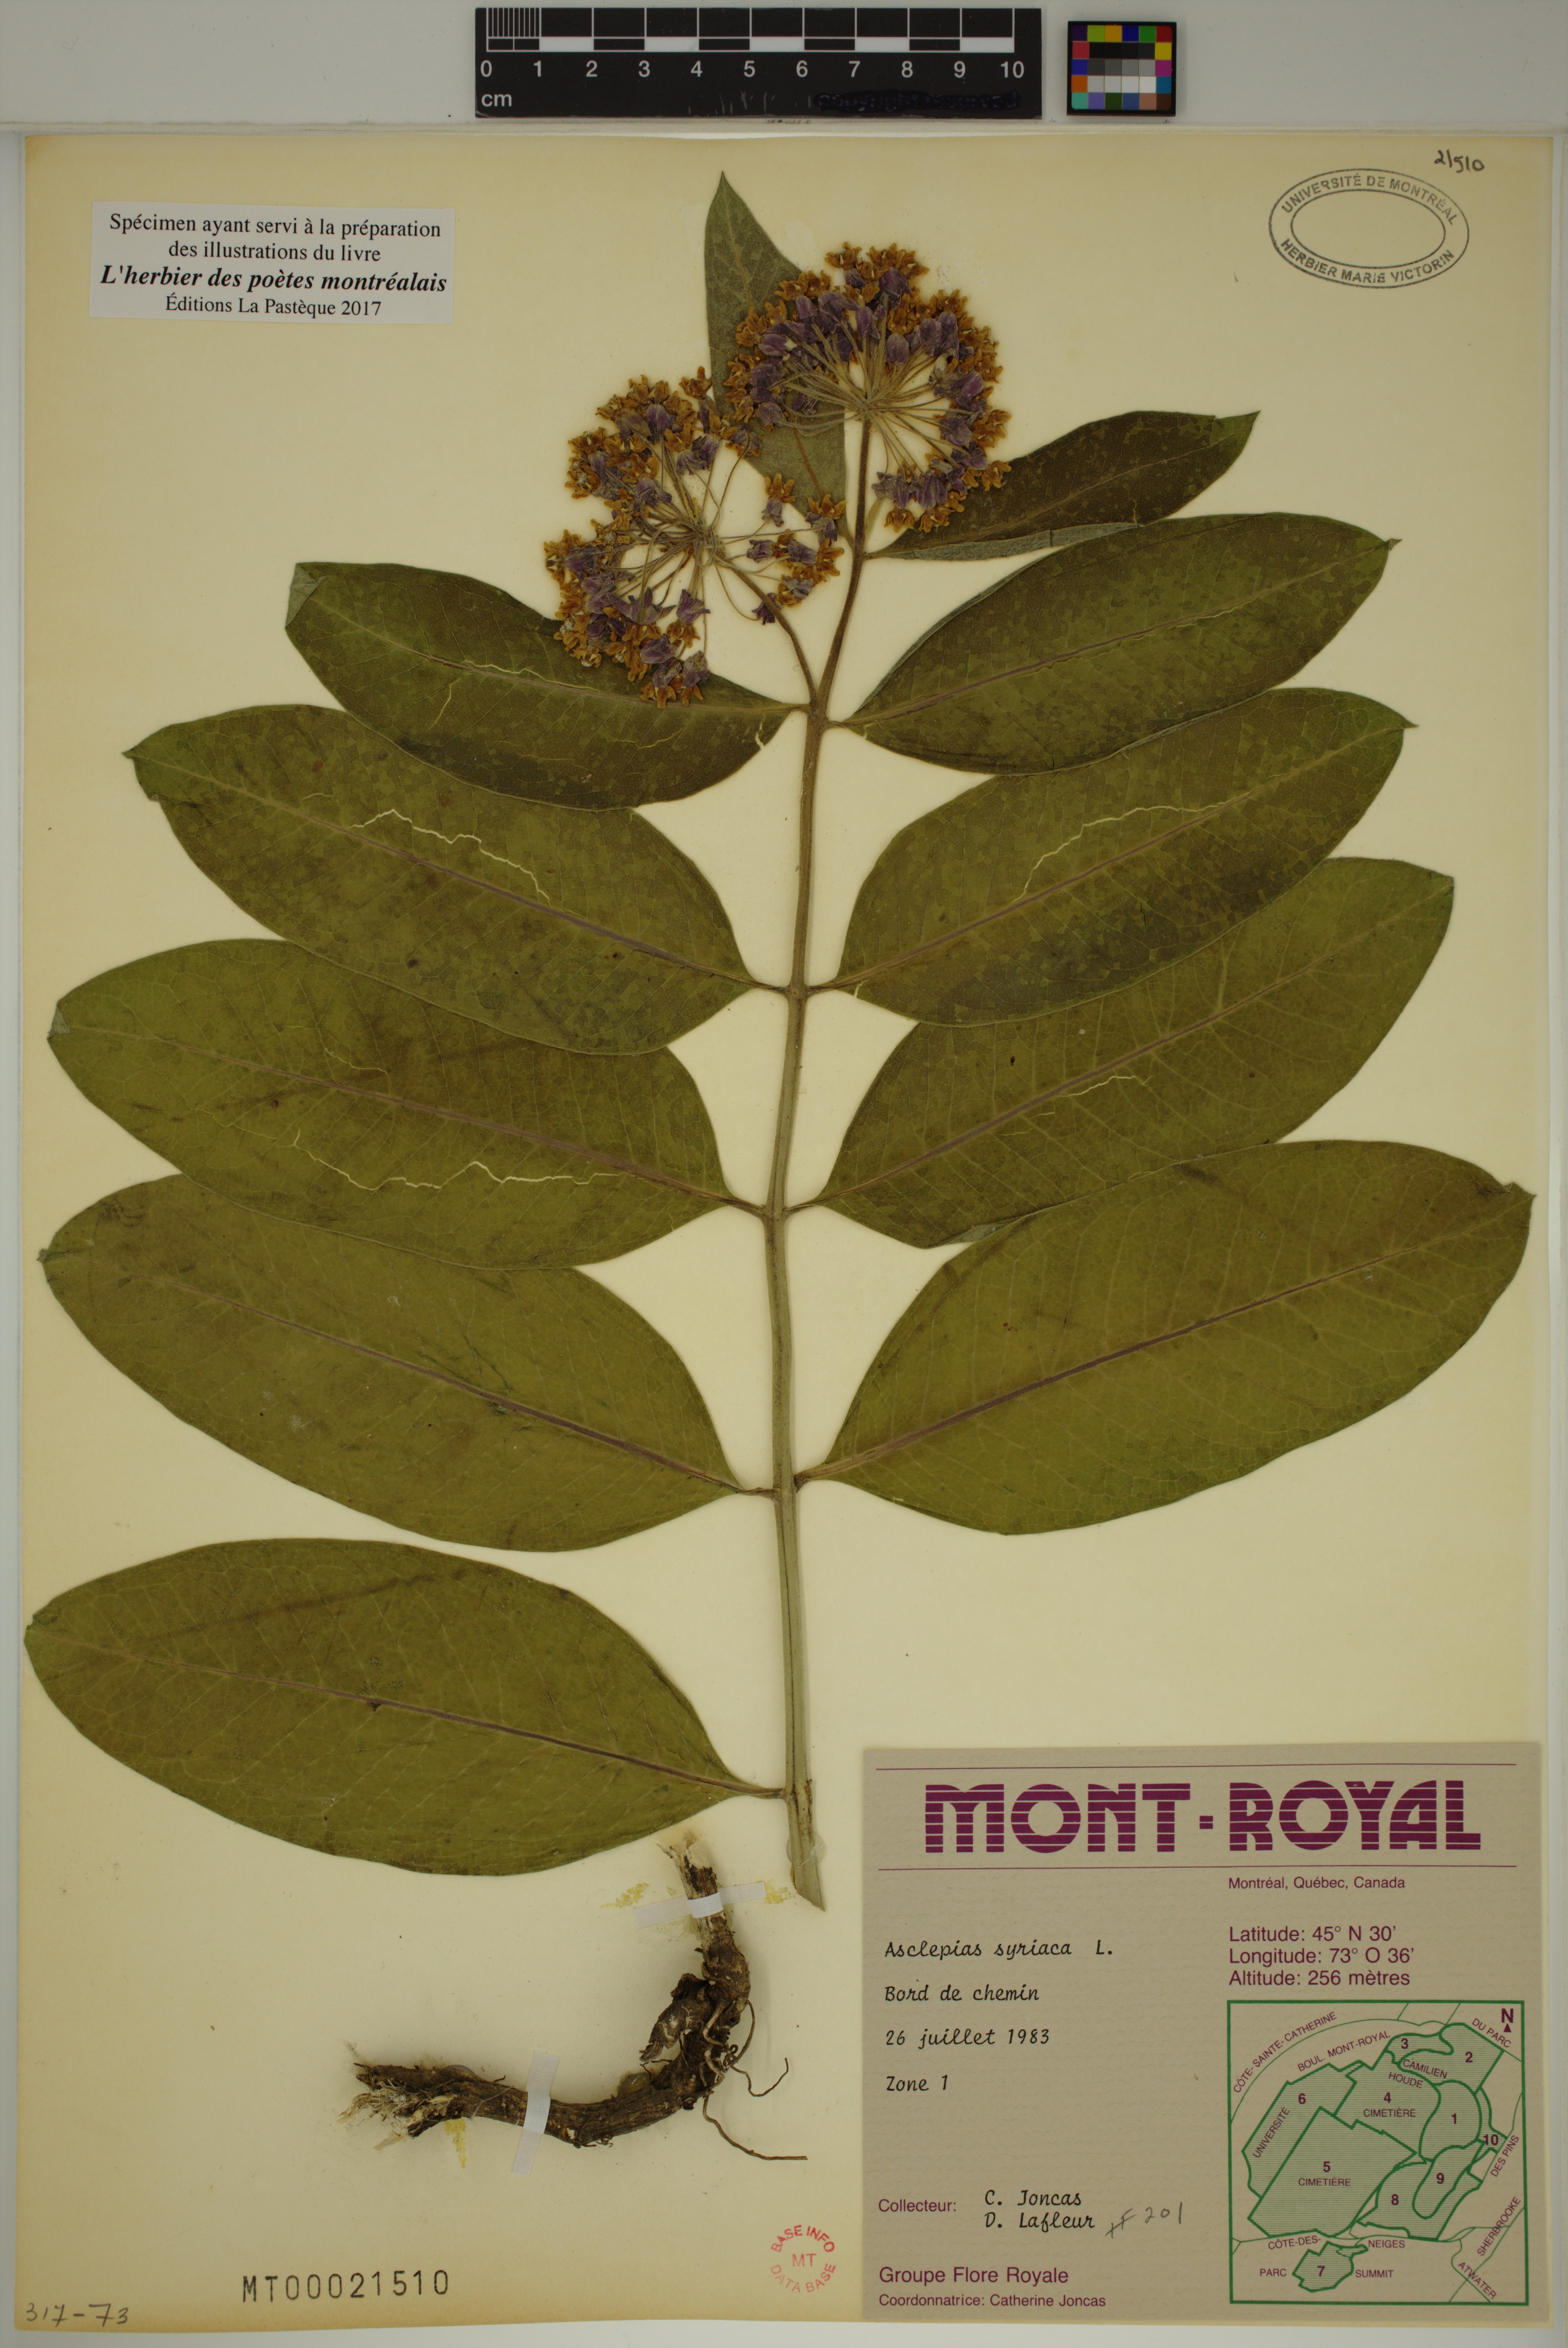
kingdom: Plantae
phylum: Tracheophyta
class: Magnoliopsida
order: Gentianales
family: Apocynaceae
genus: Asclepias
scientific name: Asclepias syriaca
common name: Common milkweed
